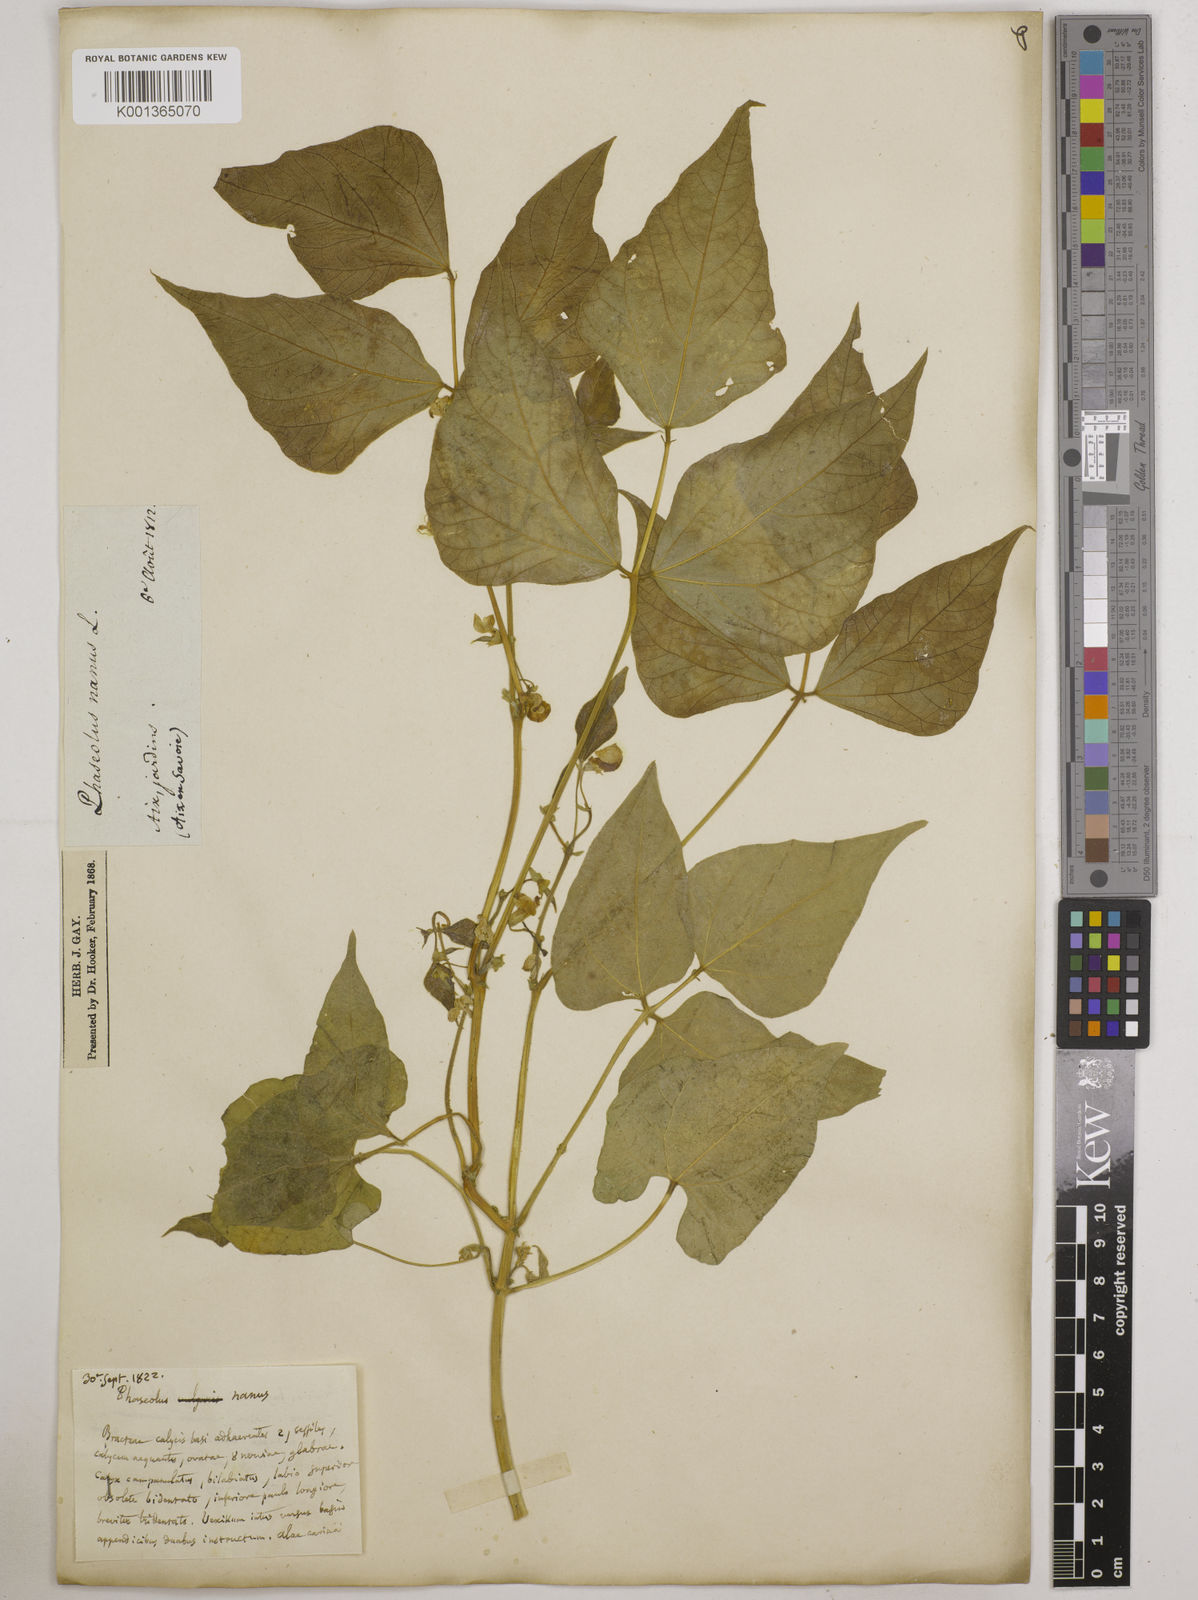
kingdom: Plantae
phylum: Tracheophyta
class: Magnoliopsida
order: Fabales
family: Fabaceae
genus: Phaseolus
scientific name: Phaseolus vulgaris
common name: Bean
